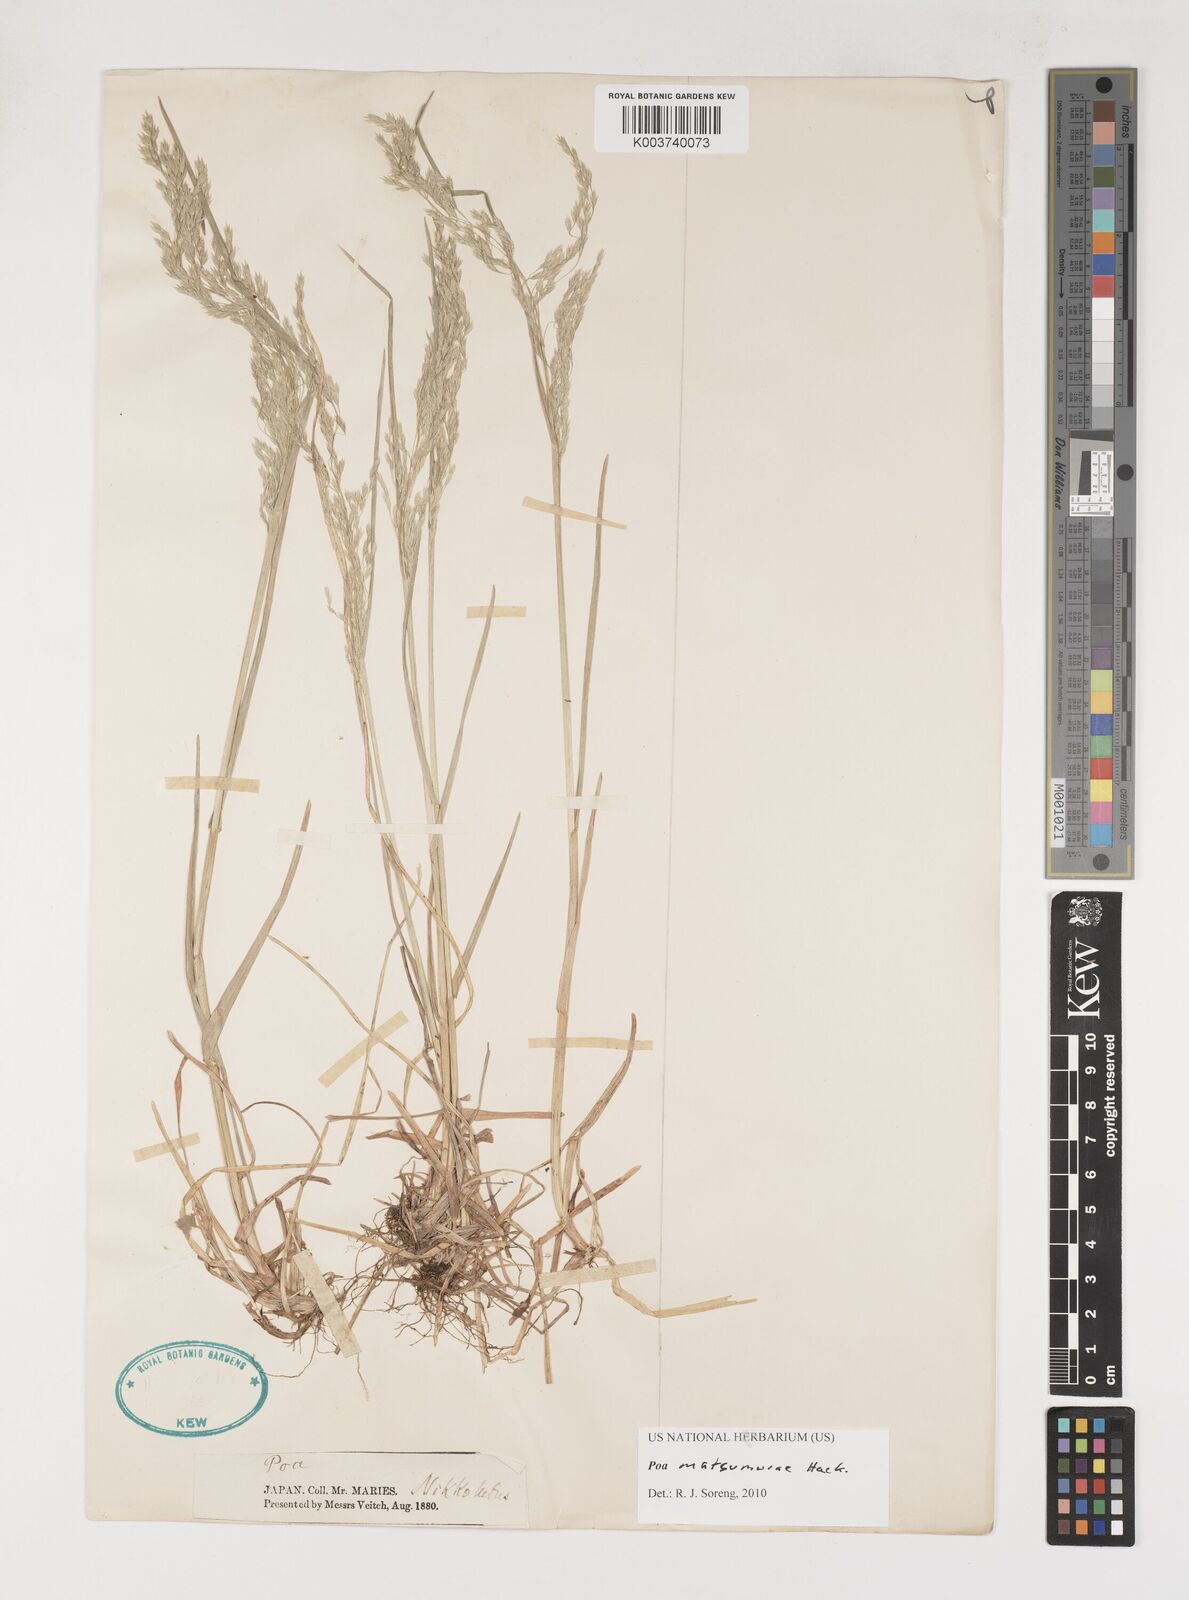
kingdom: Plantae
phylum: Tracheophyta
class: Liliopsida
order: Poales
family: Poaceae
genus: Poa
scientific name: Poa matsumurae
